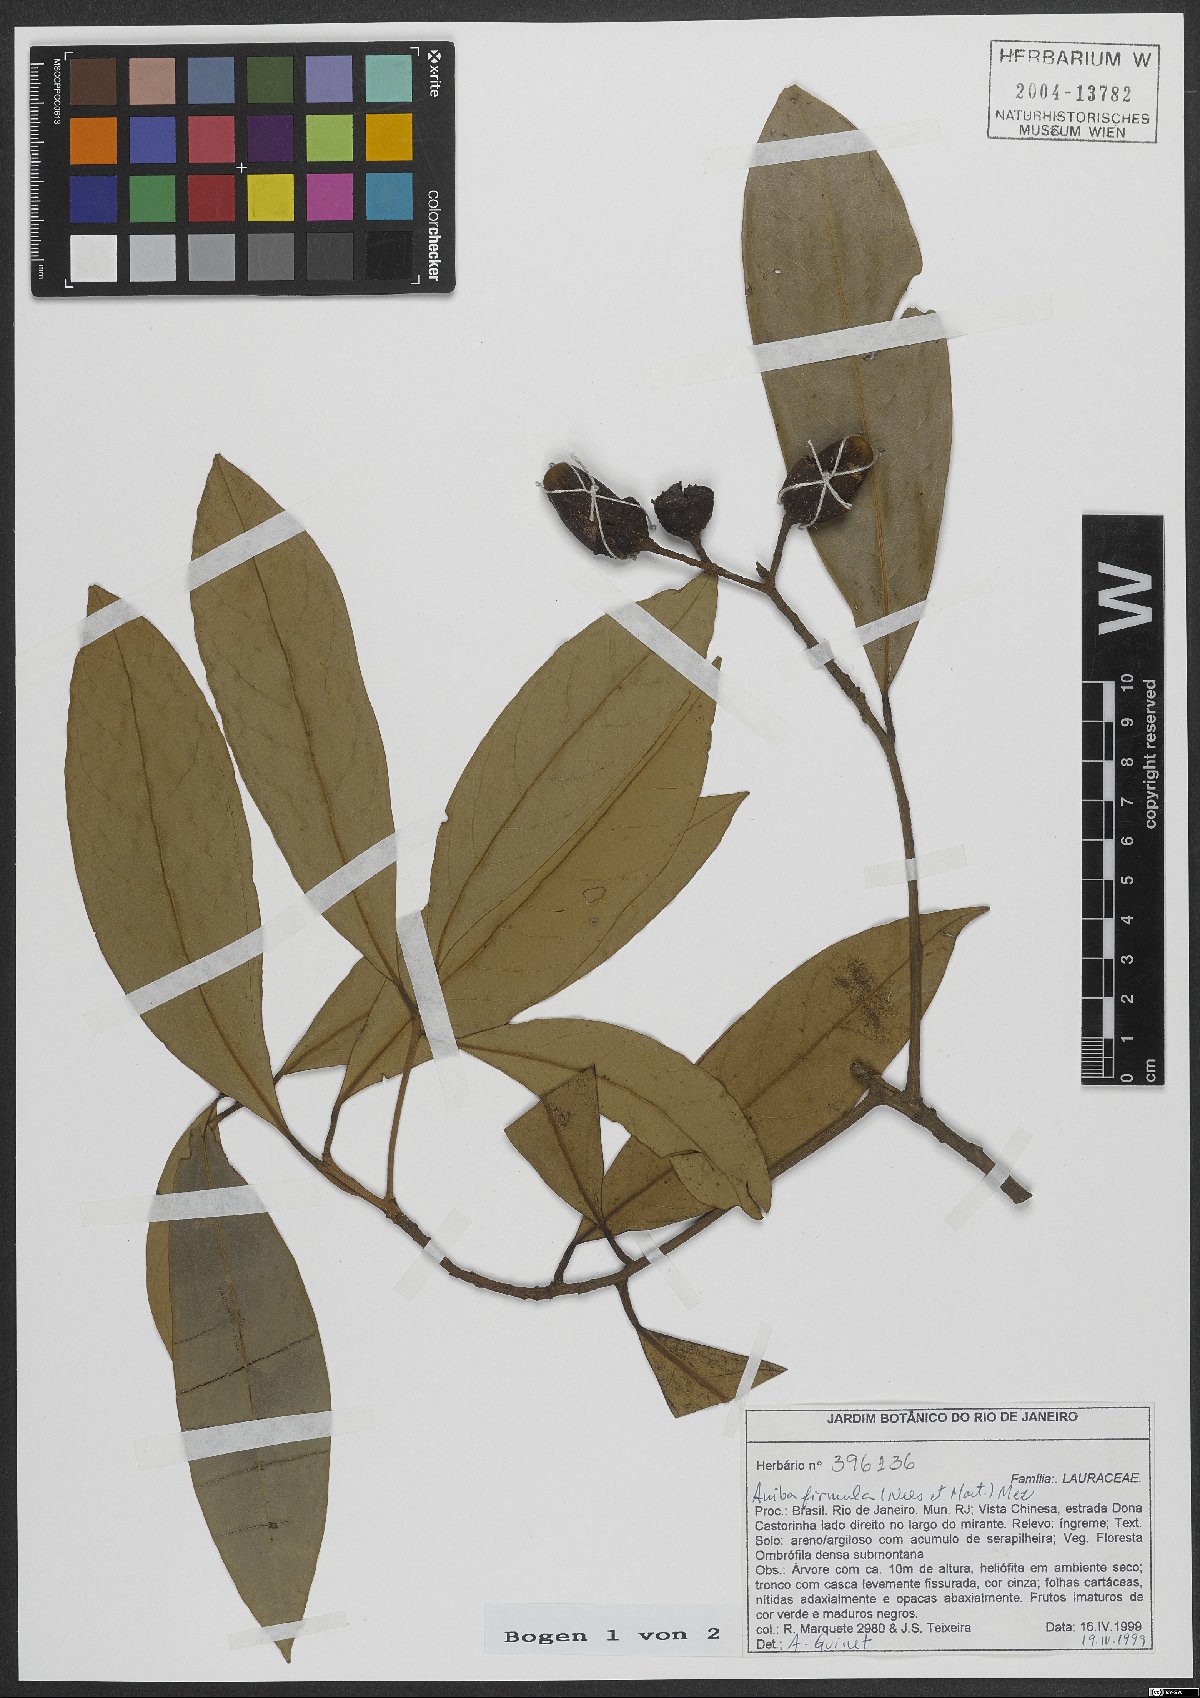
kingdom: Plantae
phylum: Tracheophyta
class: Magnoliopsida
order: Laurales
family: Lauraceae
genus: Aniba
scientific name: Aniba firmula
